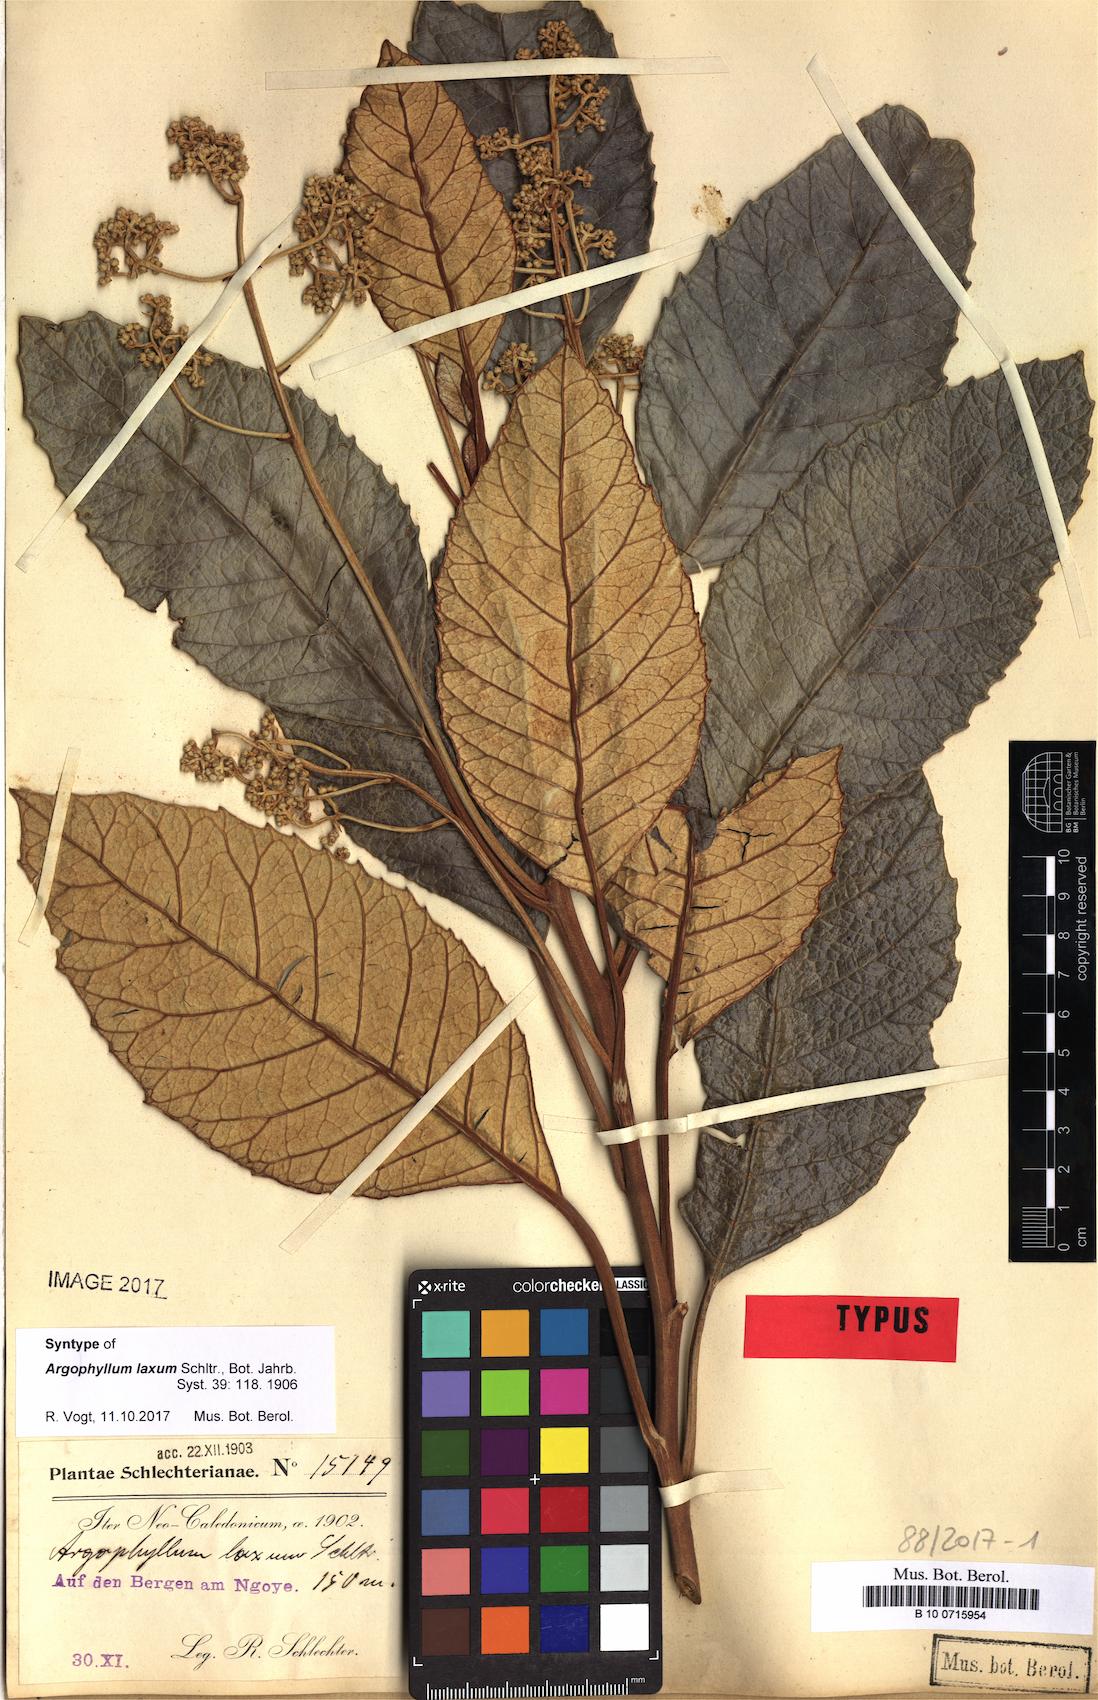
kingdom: Plantae
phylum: Tracheophyta
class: Magnoliopsida
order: Asterales
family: Argophyllaceae
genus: Argophyllum
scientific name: Argophyllum grunowii
